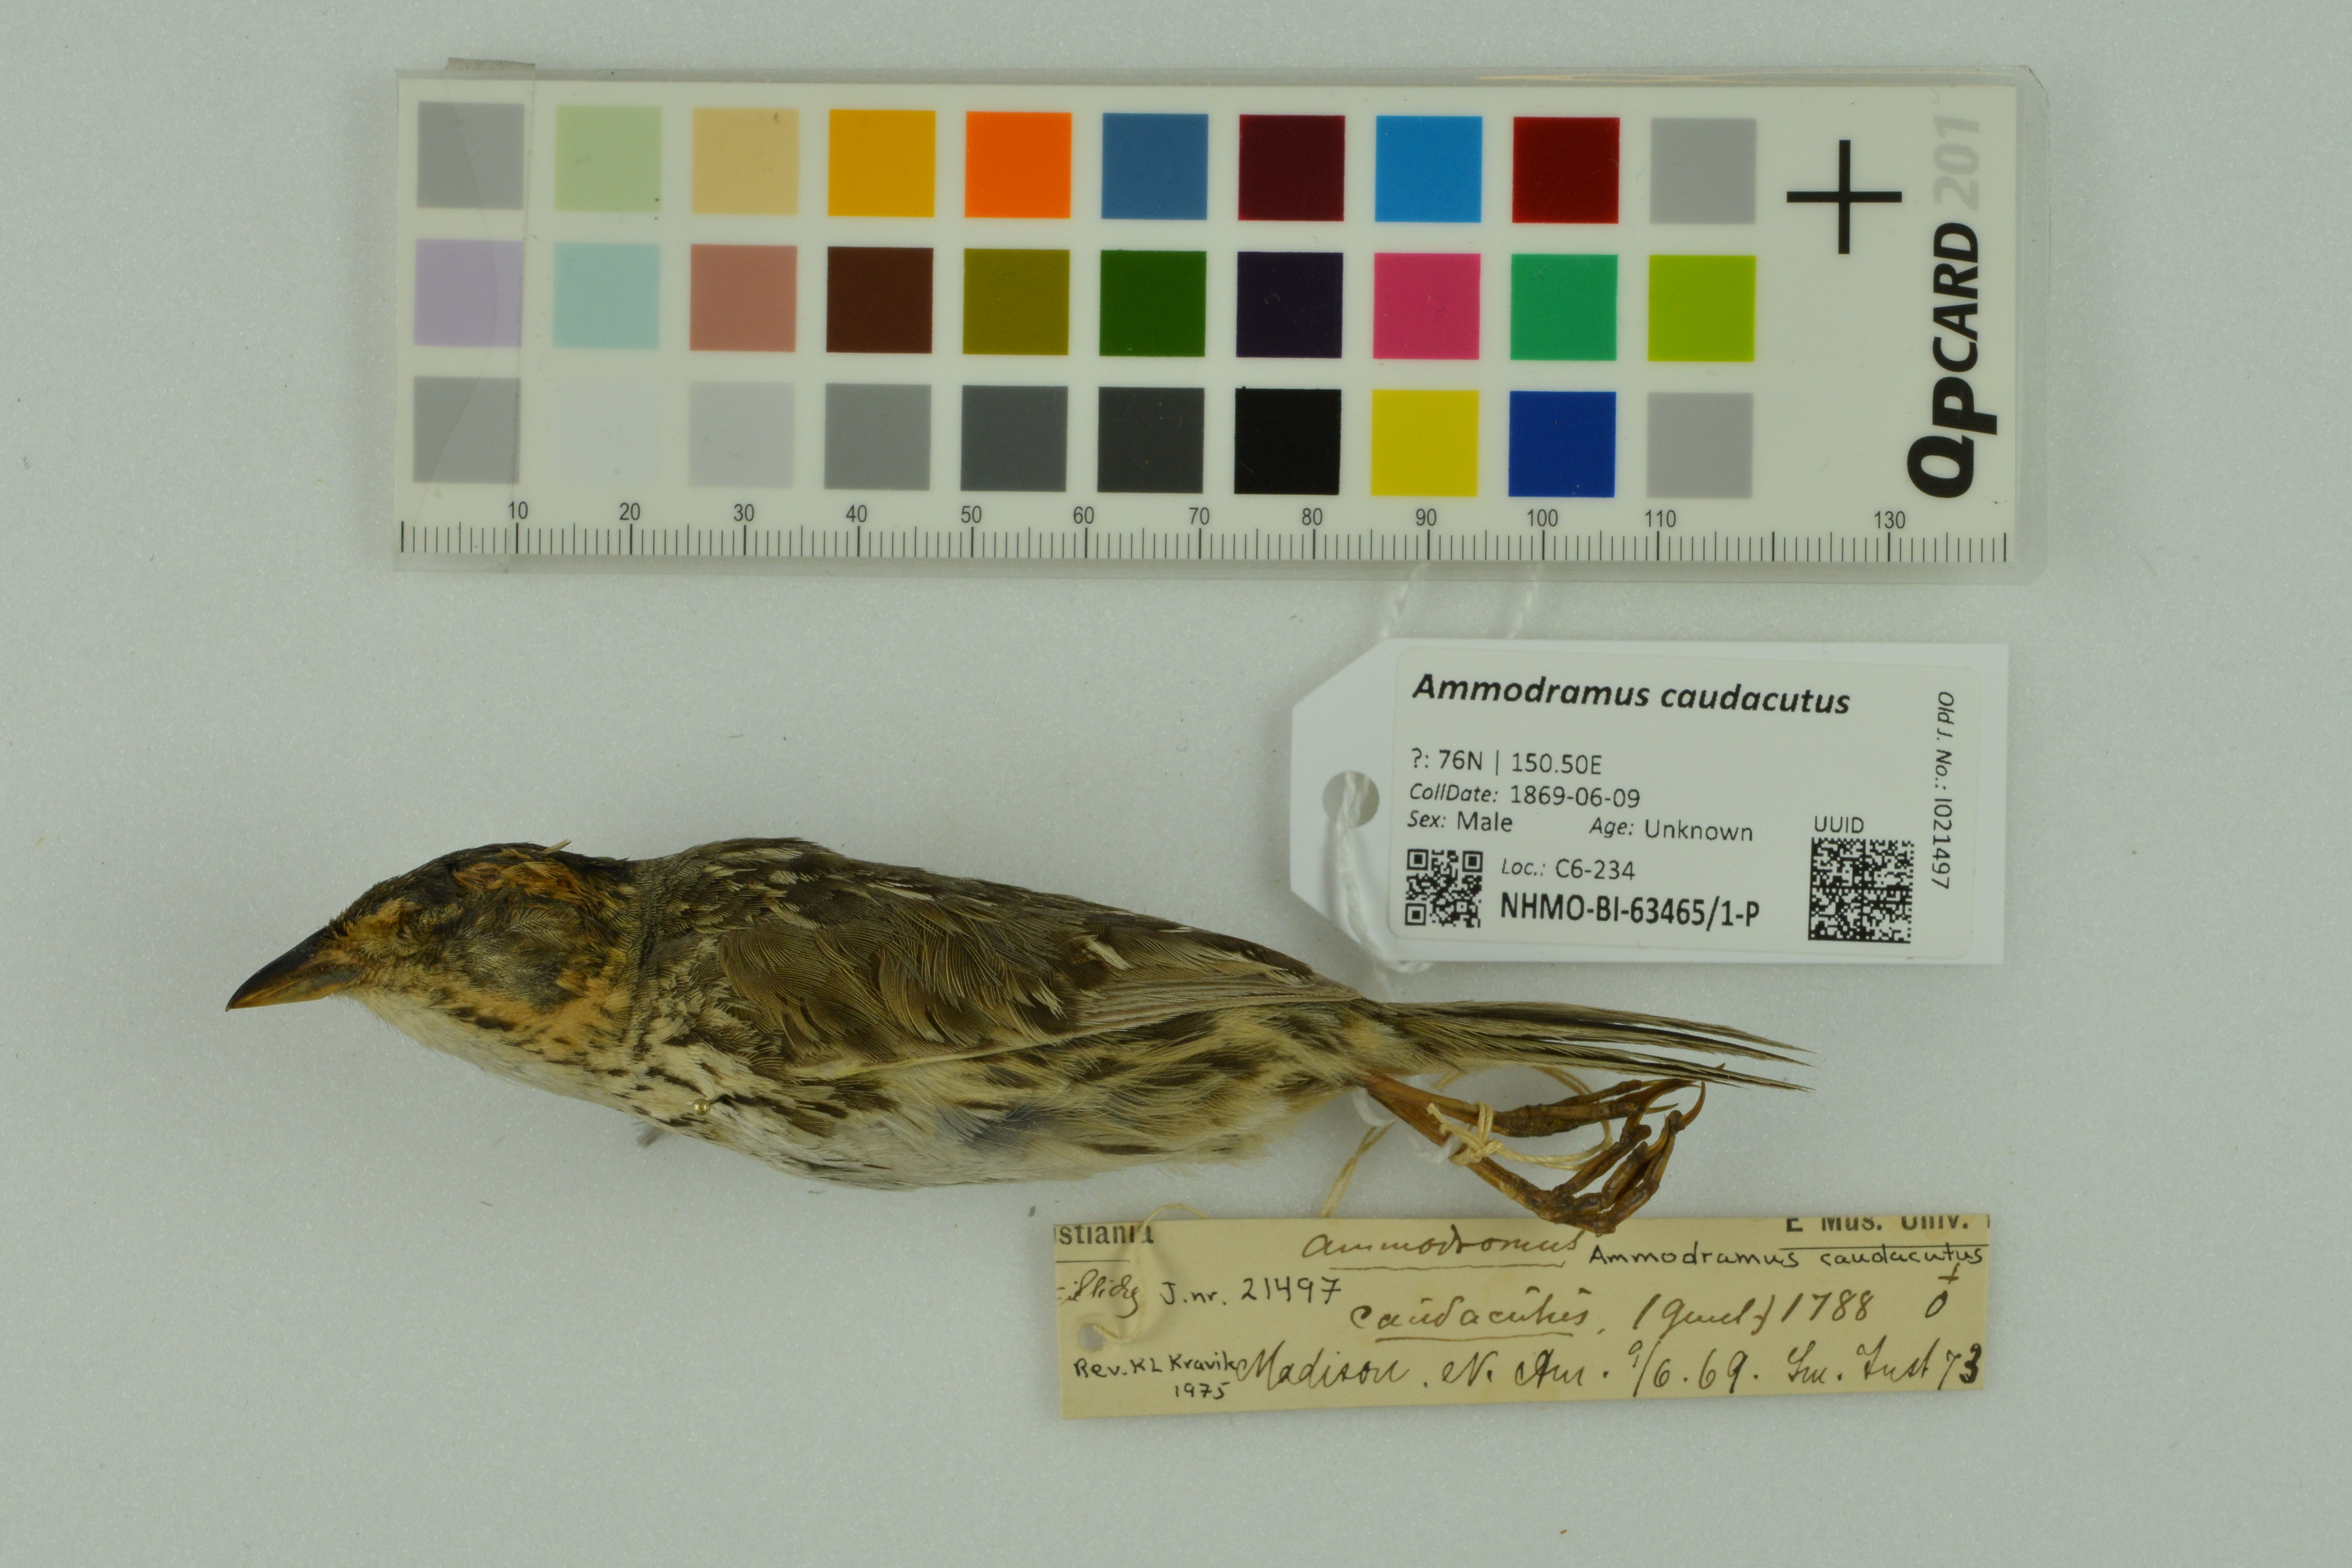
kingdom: Animalia
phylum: Chordata
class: Aves
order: Passeriformes
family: Passerellidae
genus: Ammospiza
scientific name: Ammospiza caudacuta
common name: Saltmarsh sparrow
